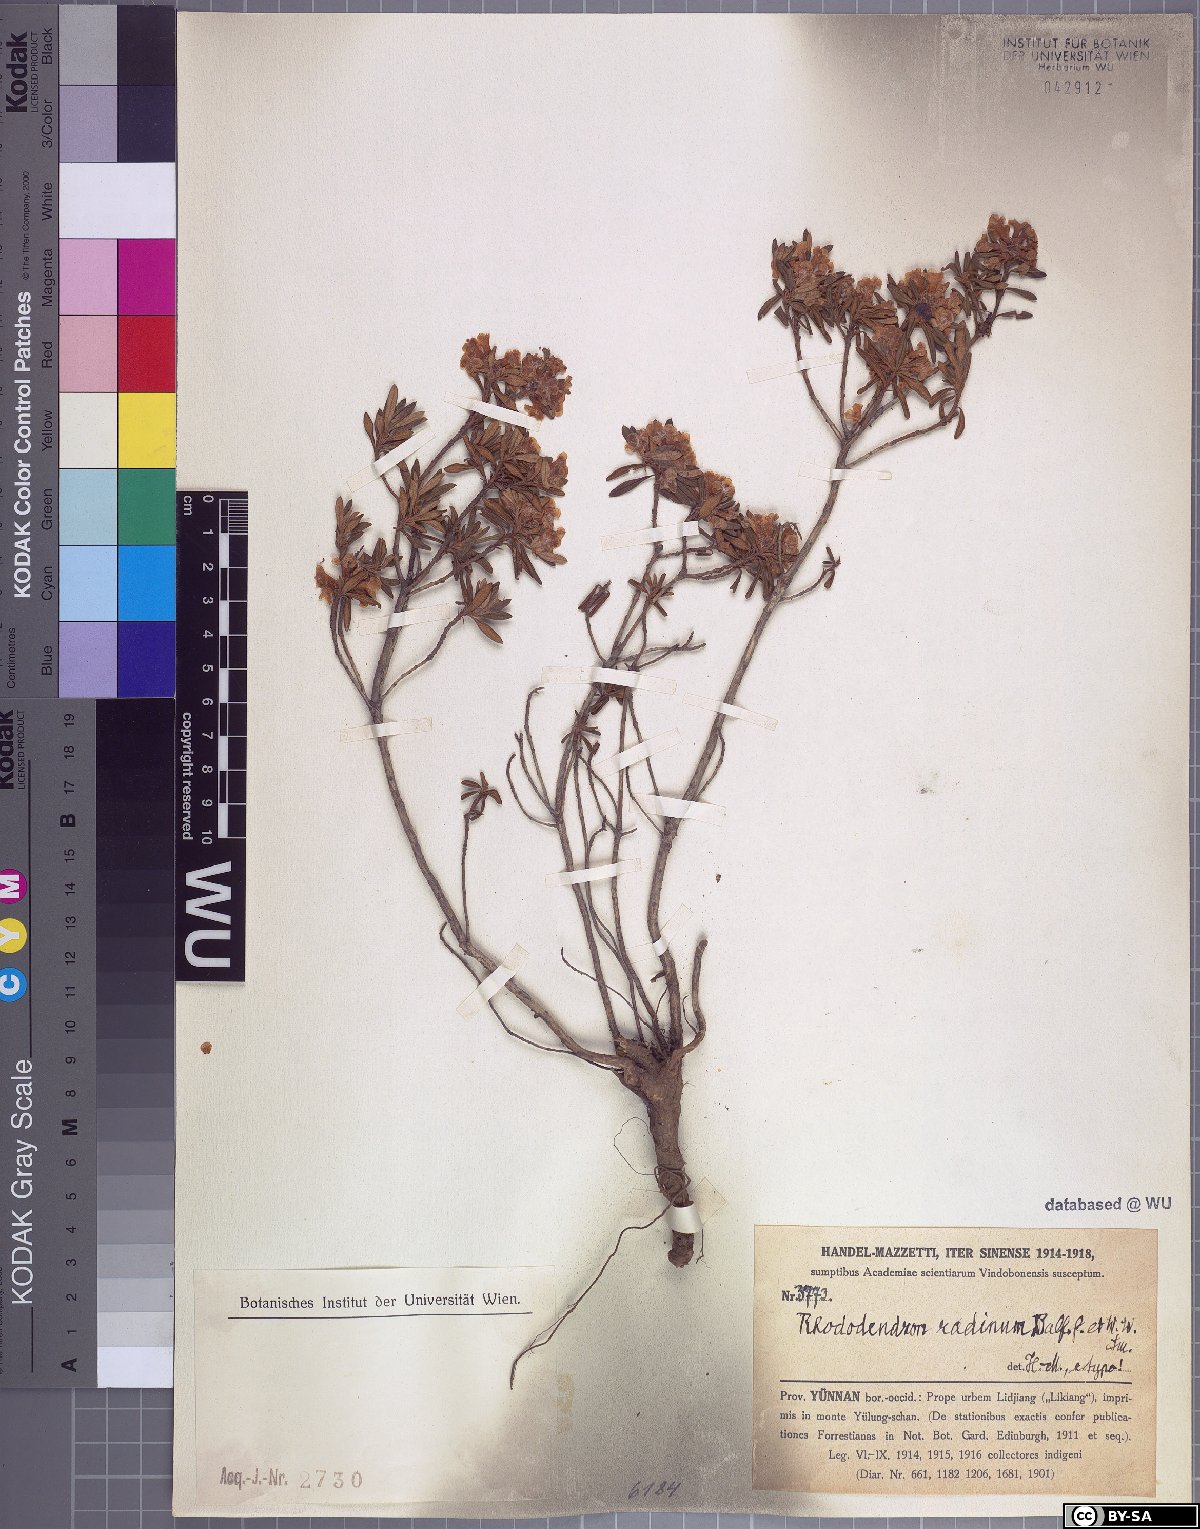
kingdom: Plantae
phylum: Tracheophyta
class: Magnoliopsida
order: Ericales
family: Ericaceae
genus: Rhododendron
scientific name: Rhododendron trichostomum
